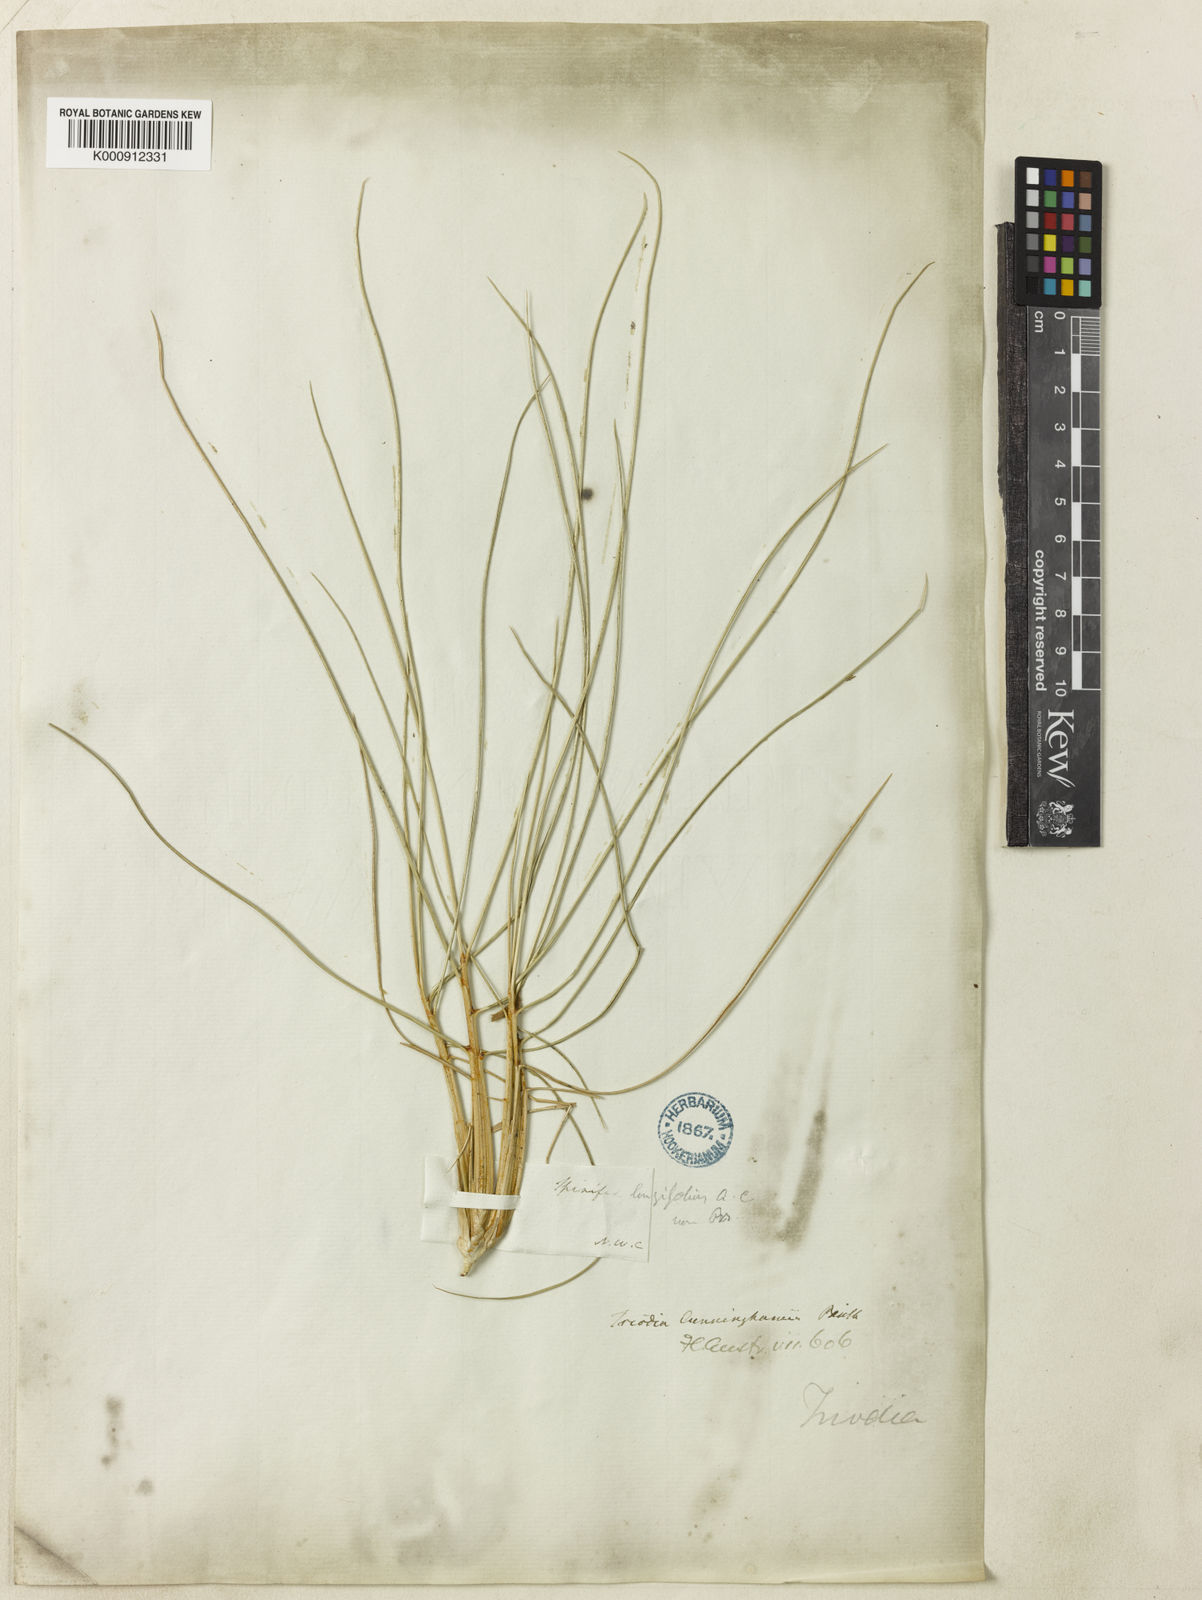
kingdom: Plantae
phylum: Tracheophyta
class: Liliopsida
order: Poales
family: Poaceae
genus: Triodia
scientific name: Triodia cunninghamii
